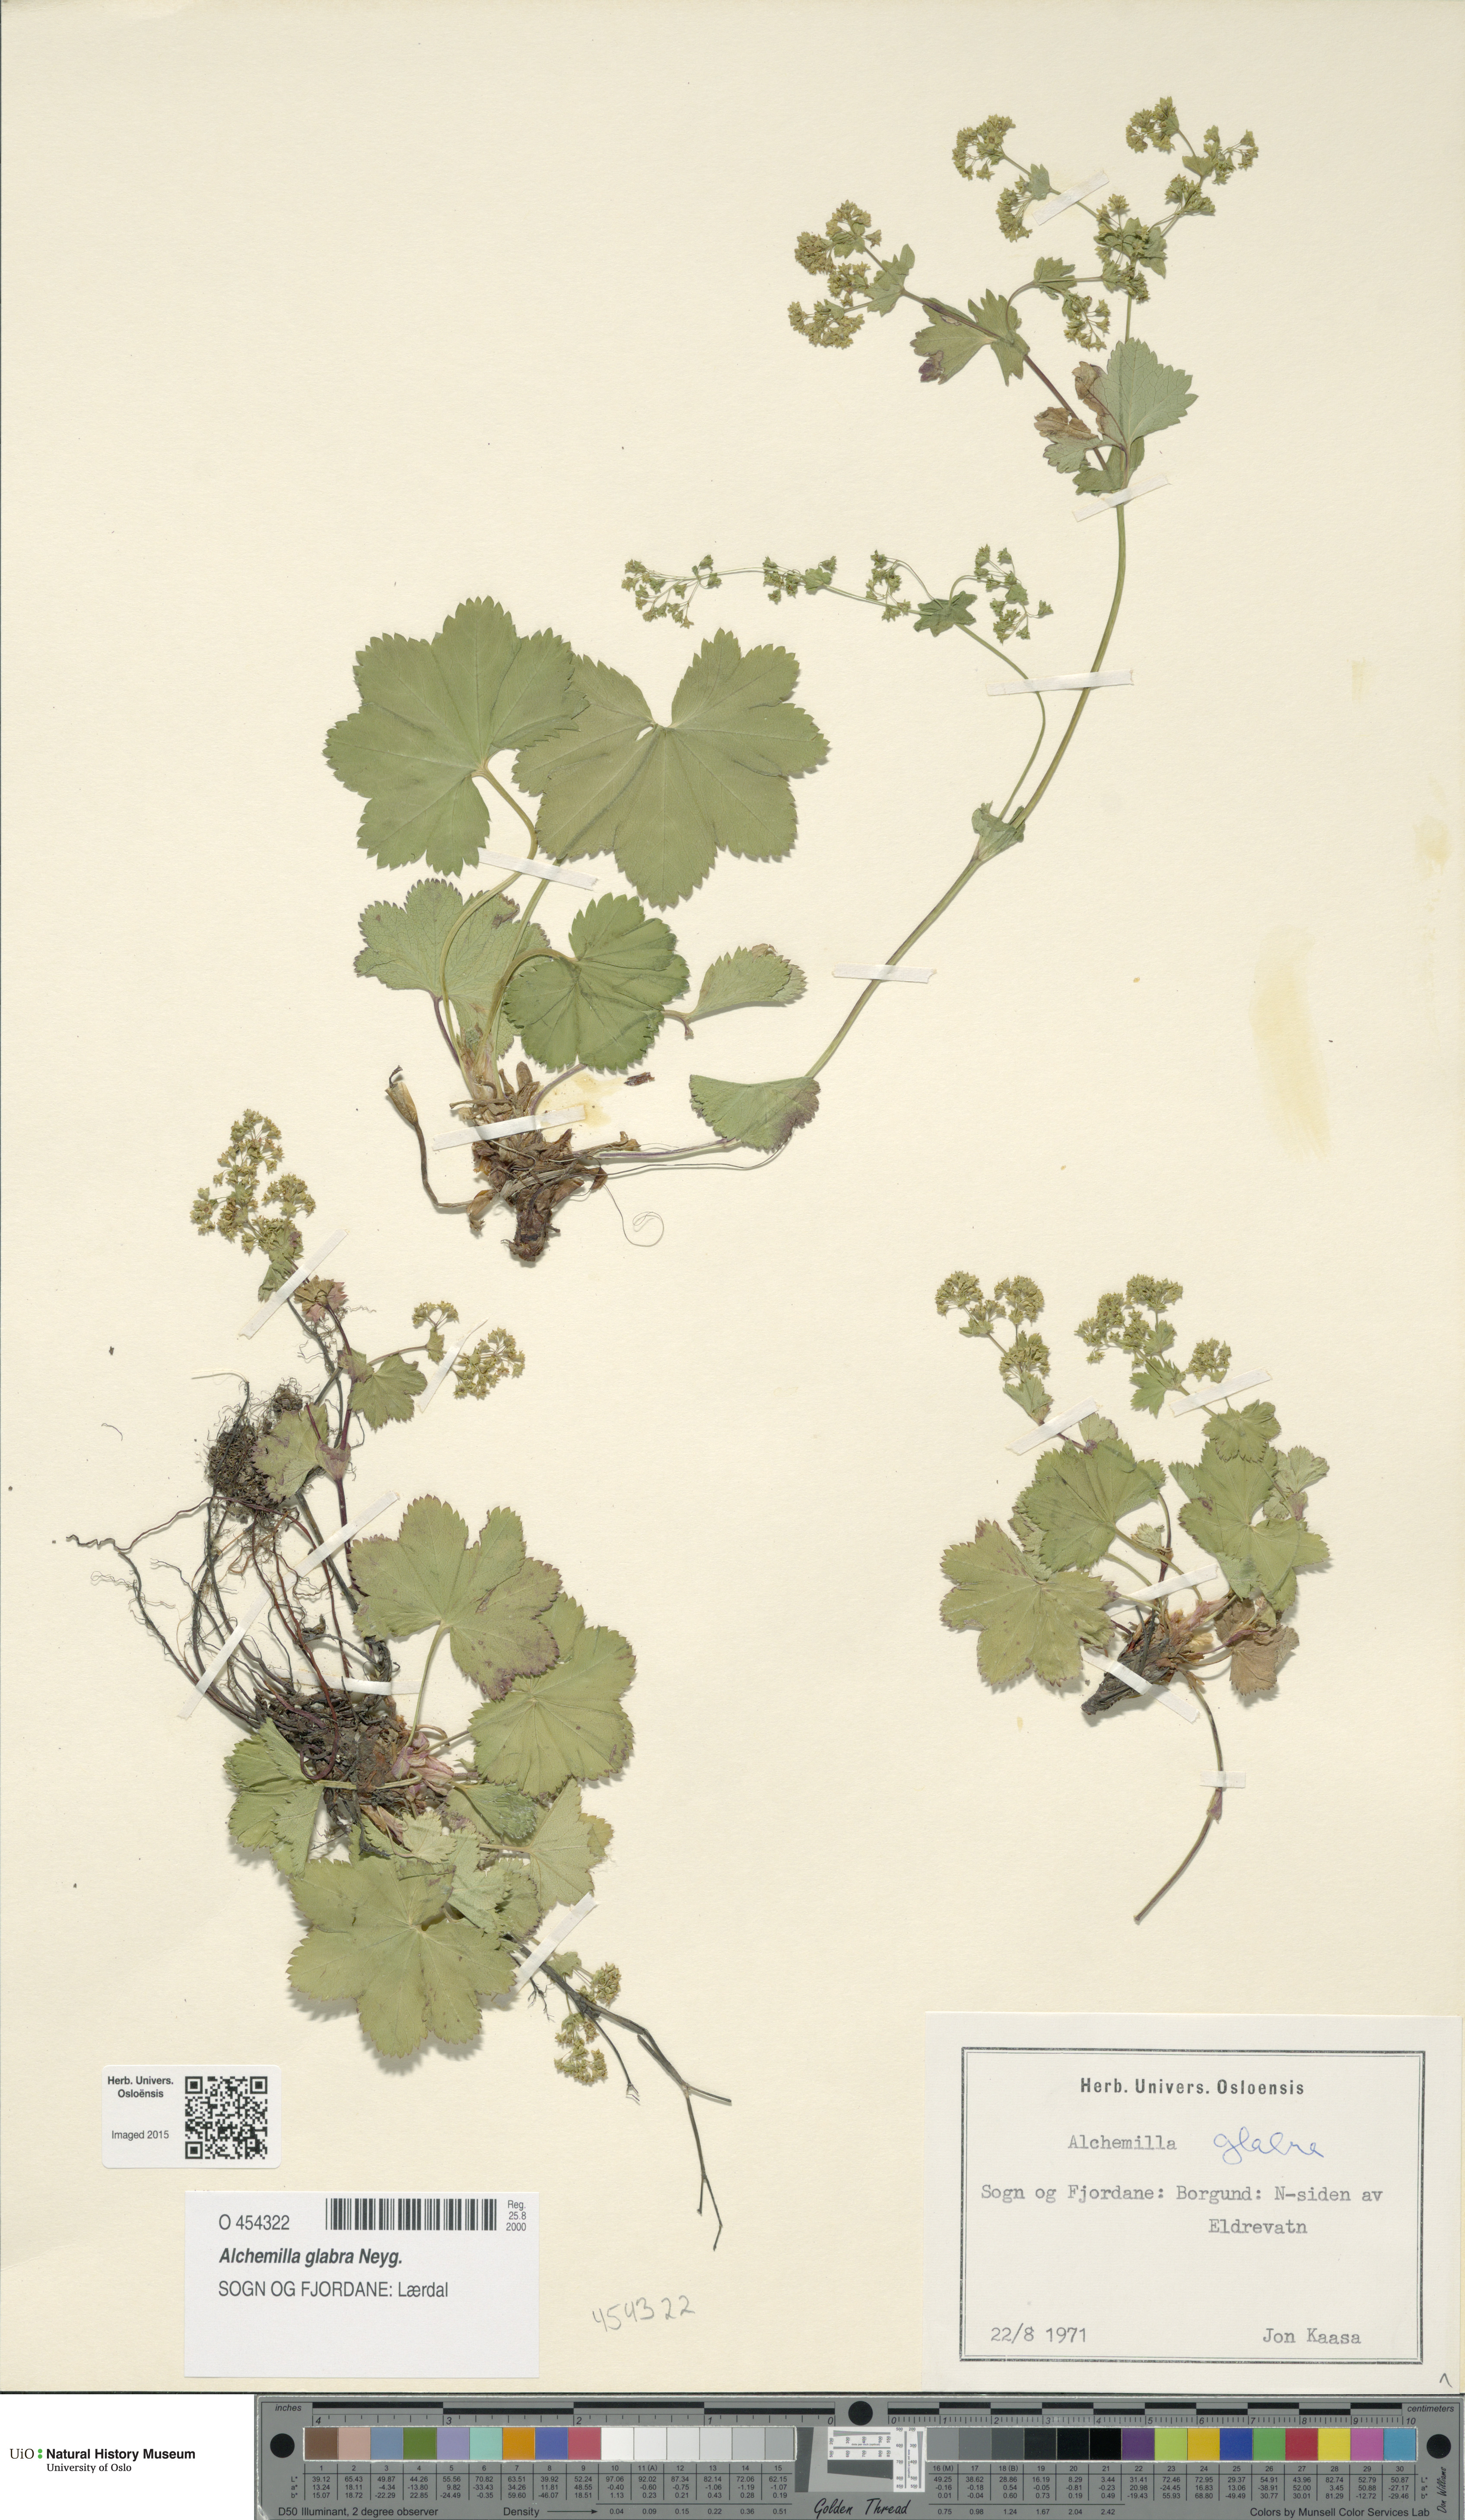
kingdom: Plantae
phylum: Tracheophyta
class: Magnoliopsida
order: Rosales
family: Rosaceae
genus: Alchemilla
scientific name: Alchemilla glabra
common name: Smooth lady's-mantle
